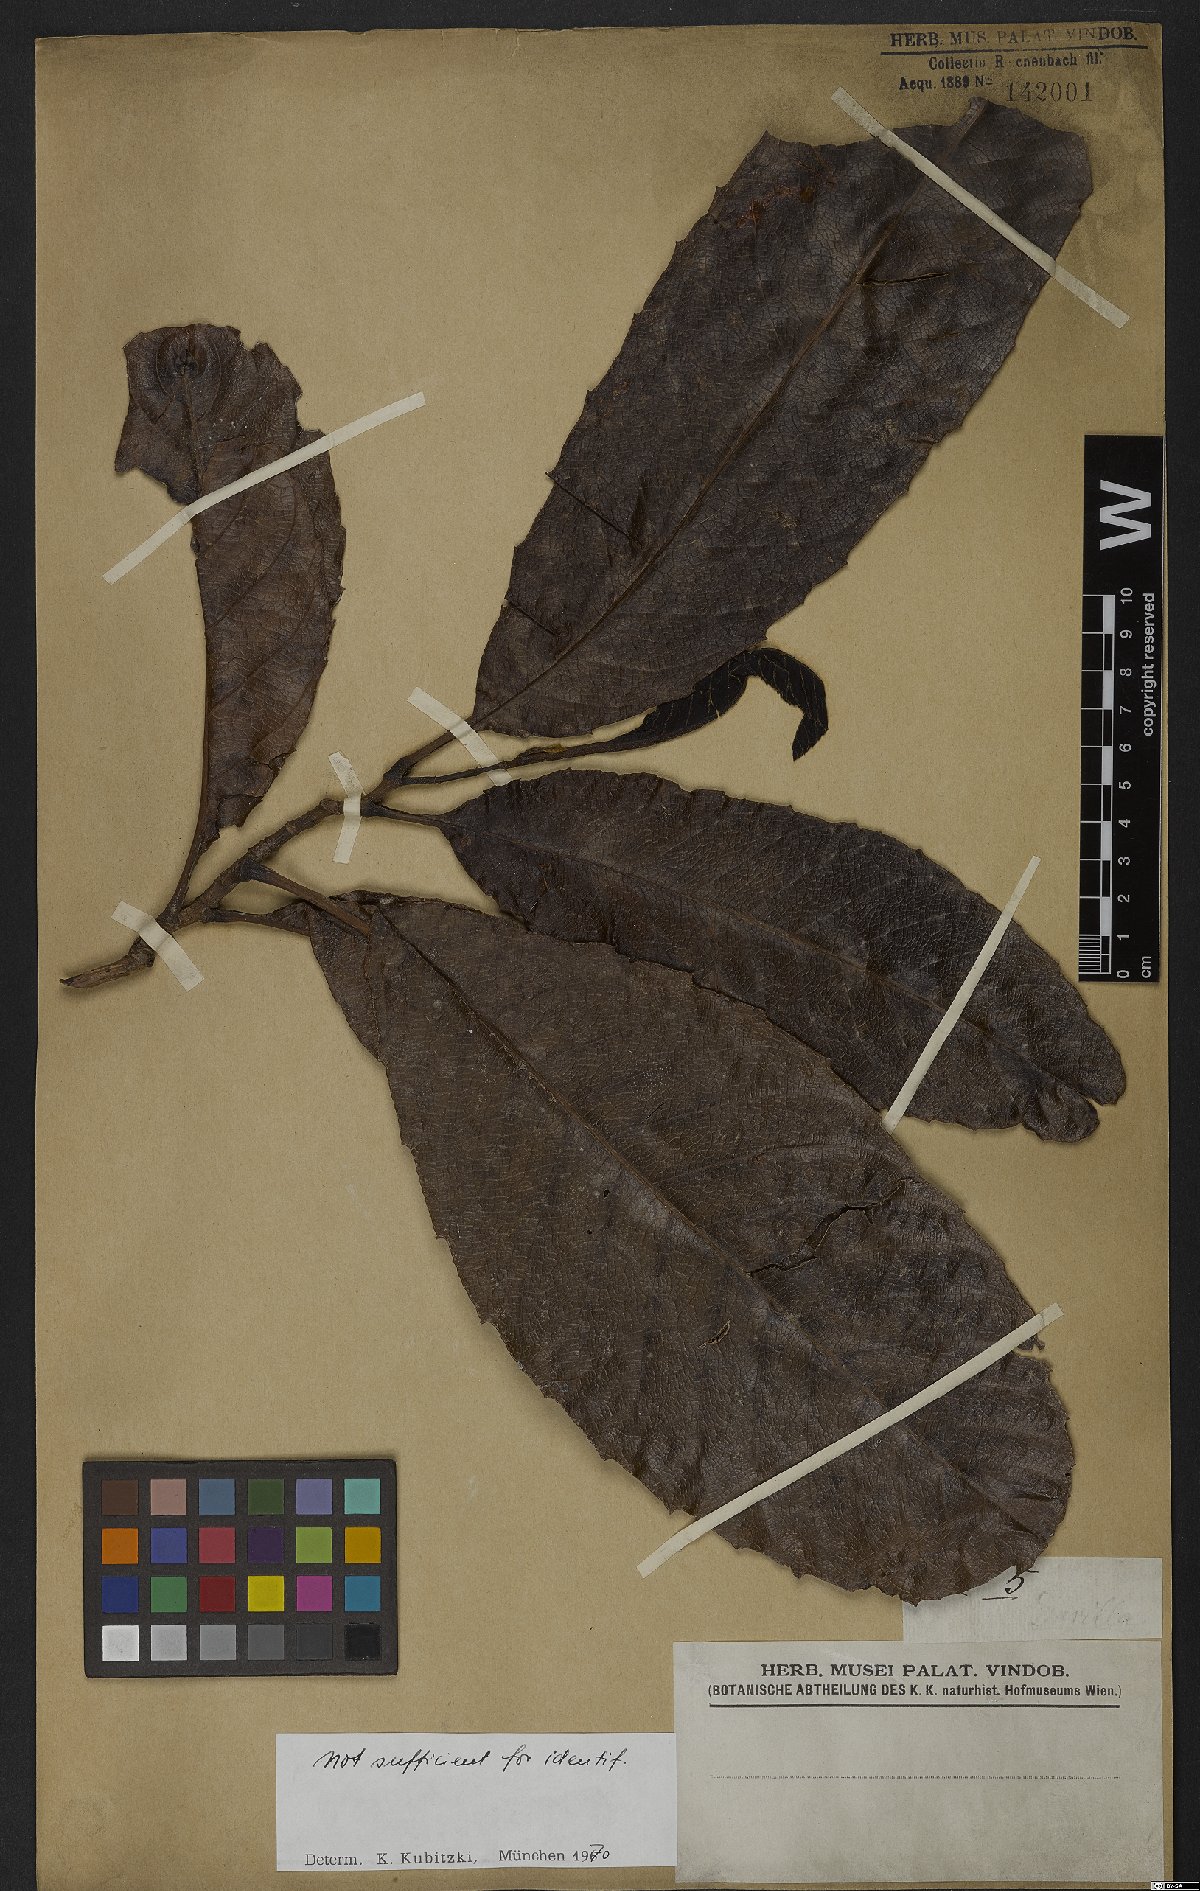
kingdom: Plantae
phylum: Tracheophyta
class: Magnoliopsida
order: Dilleniales
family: Dilleniaceae
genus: Davilla
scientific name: Davilla macrocarpa
